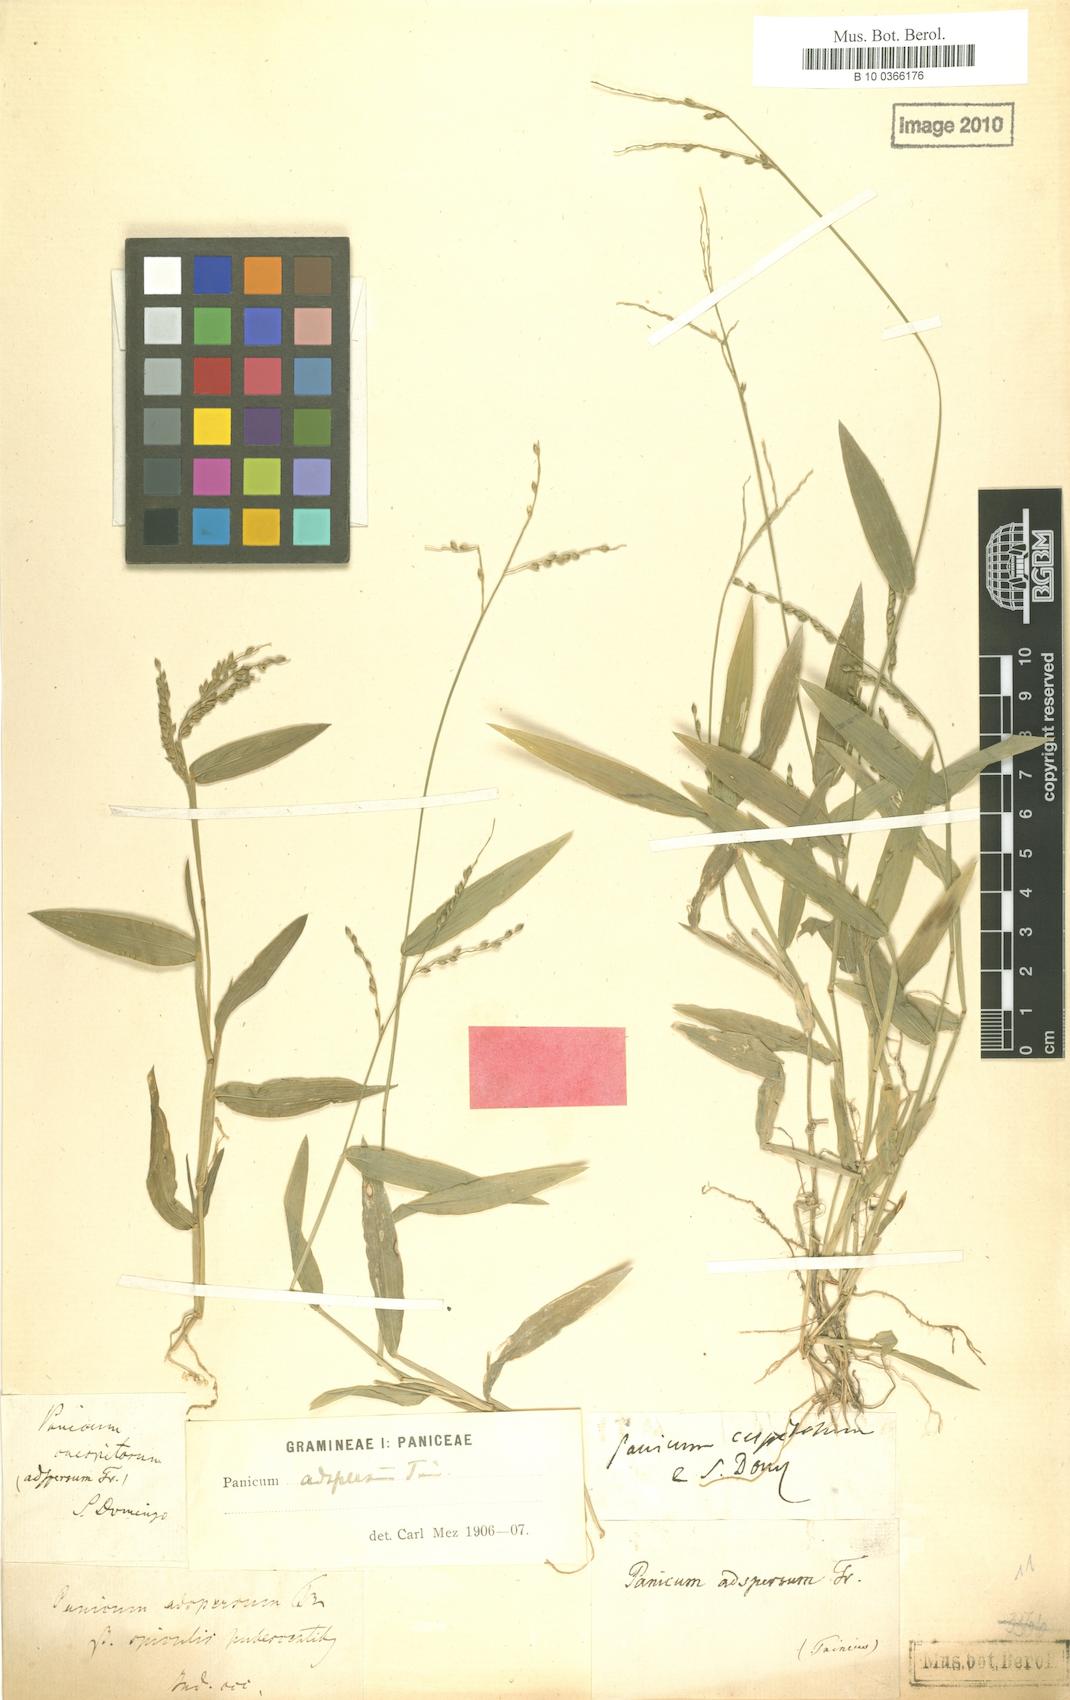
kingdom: Plantae
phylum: Tracheophyta
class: Liliopsida
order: Poales
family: Poaceae
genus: Urochloa
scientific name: Urochloa adspersa
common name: Dominican signal grass
